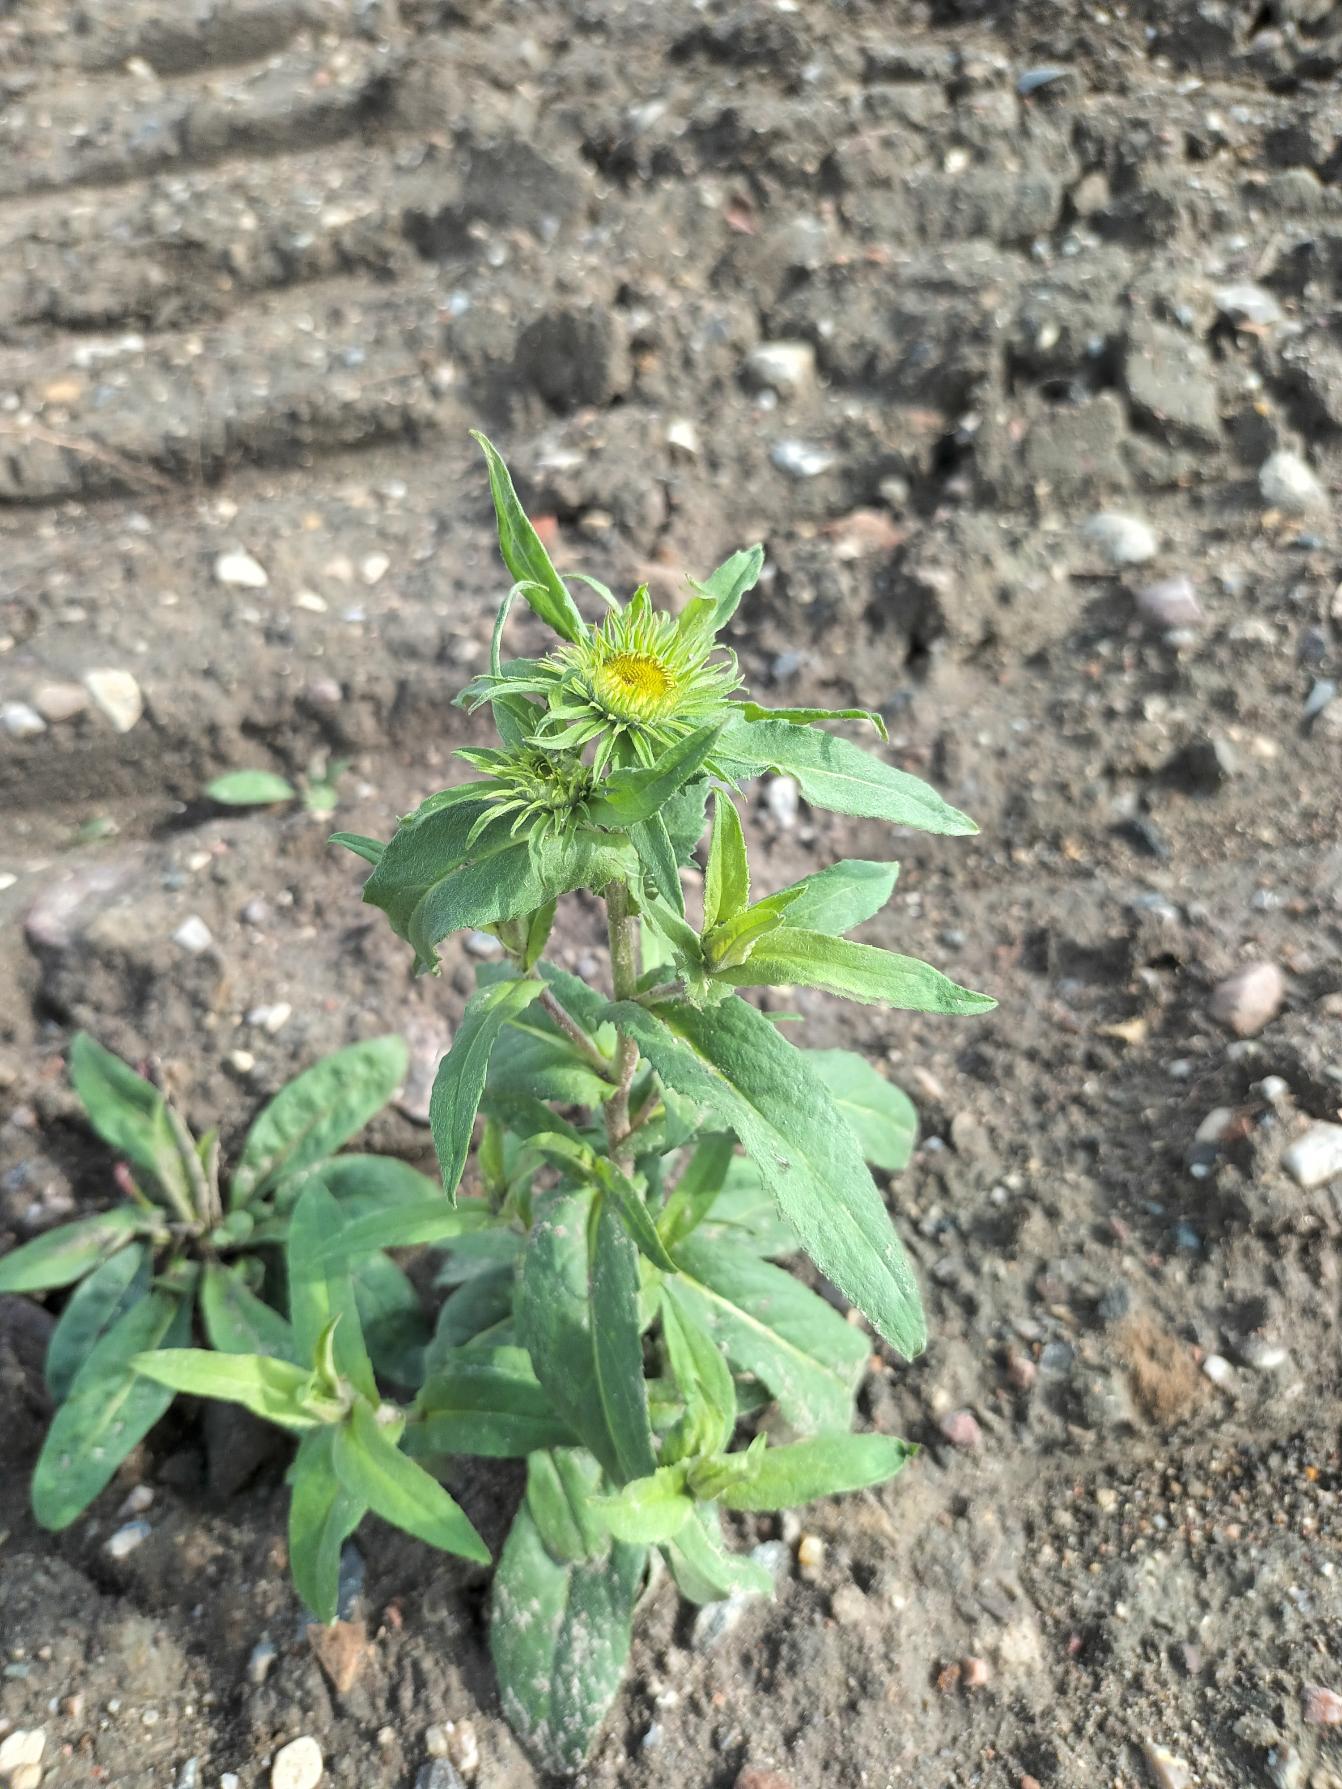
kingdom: Plantae
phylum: Tracheophyta
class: Magnoliopsida
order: Asterales
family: Asteraceae
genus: Pentanema
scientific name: Pentanema britannicum
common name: Soløje-alant
